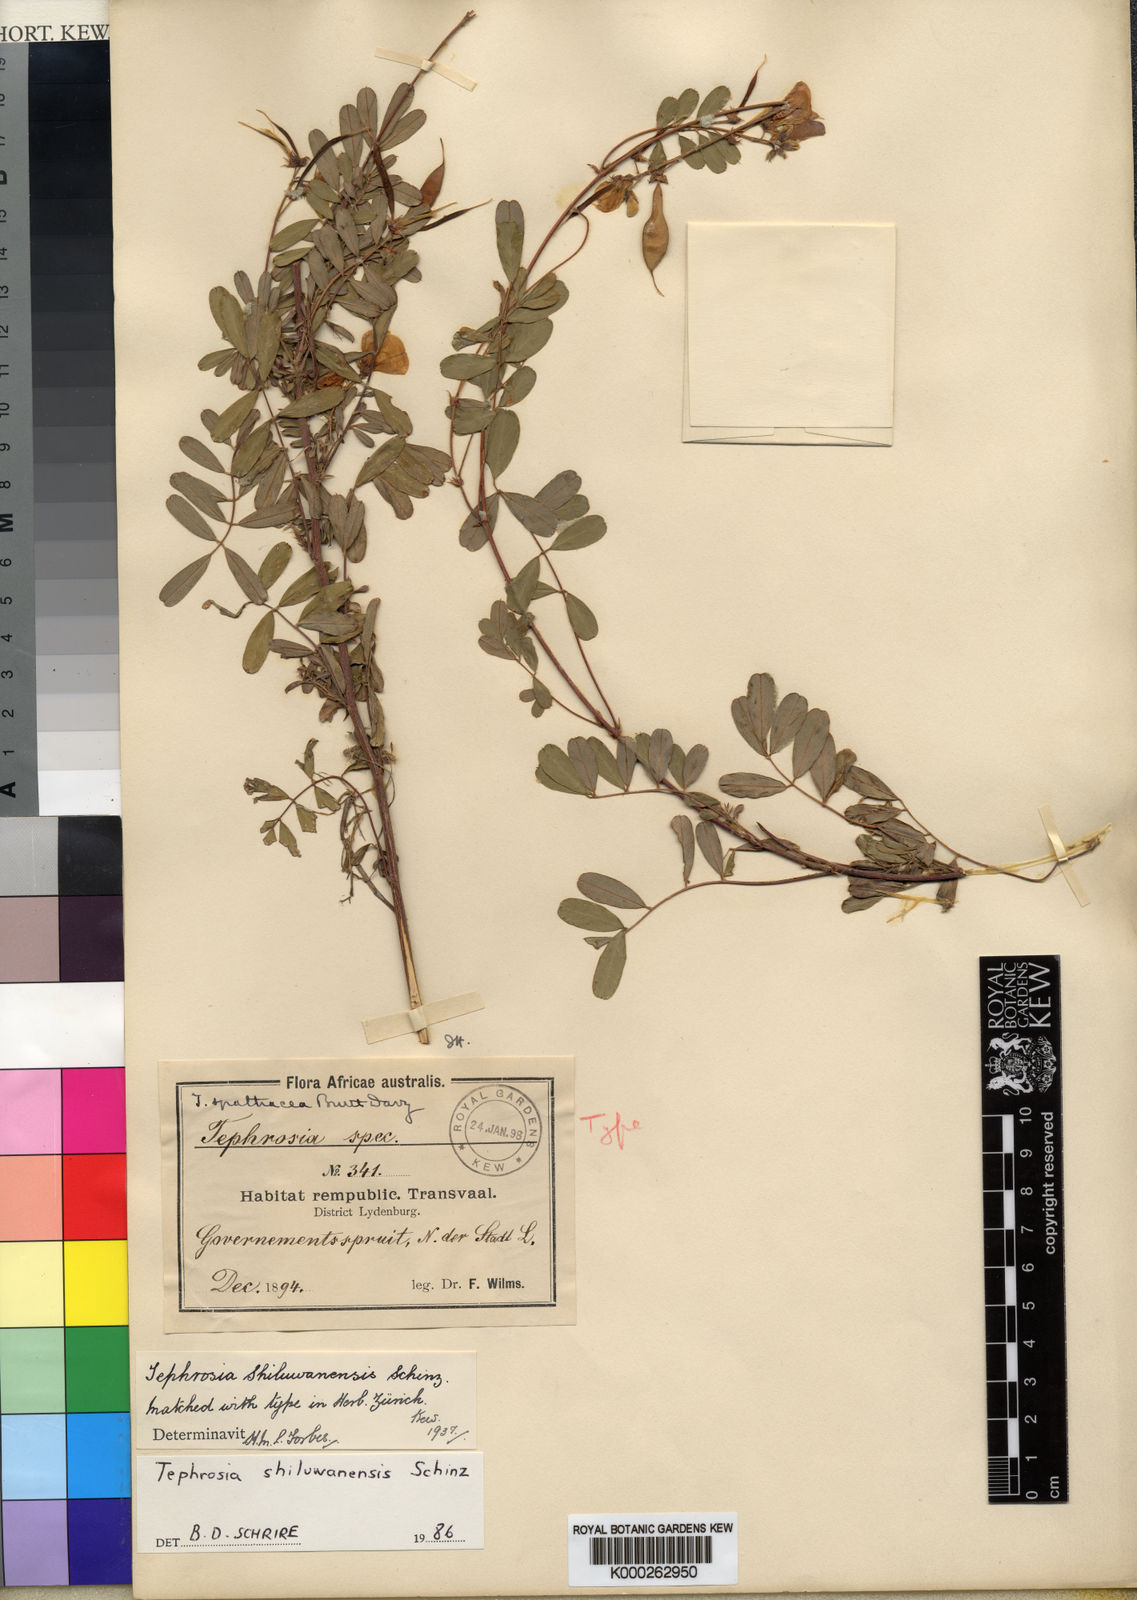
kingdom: Plantae
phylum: Tracheophyta
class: Magnoliopsida
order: Fabales
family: Fabaceae
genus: Tephrosia
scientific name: Tephrosia shiluwanensis
